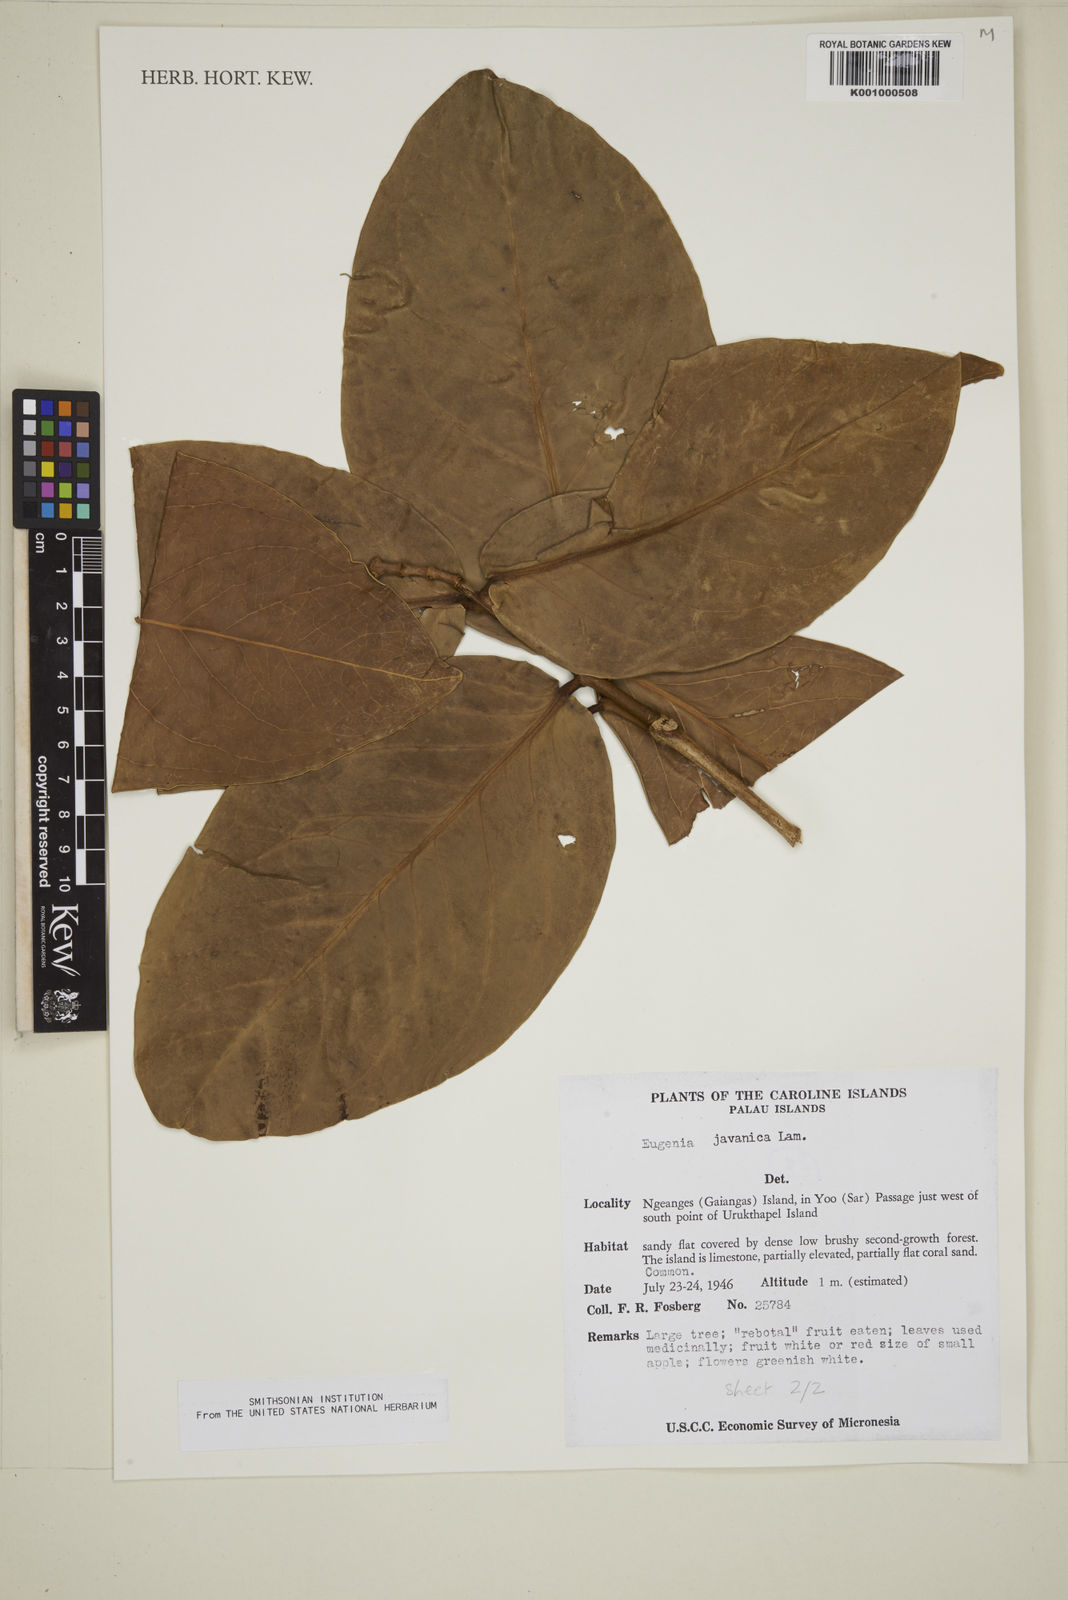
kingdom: Plantae
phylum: Tracheophyta
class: Magnoliopsida
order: Myrtales
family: Myrtaceae
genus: Syzygium
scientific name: Syzygium samarangense
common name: Semarang rose-apple
